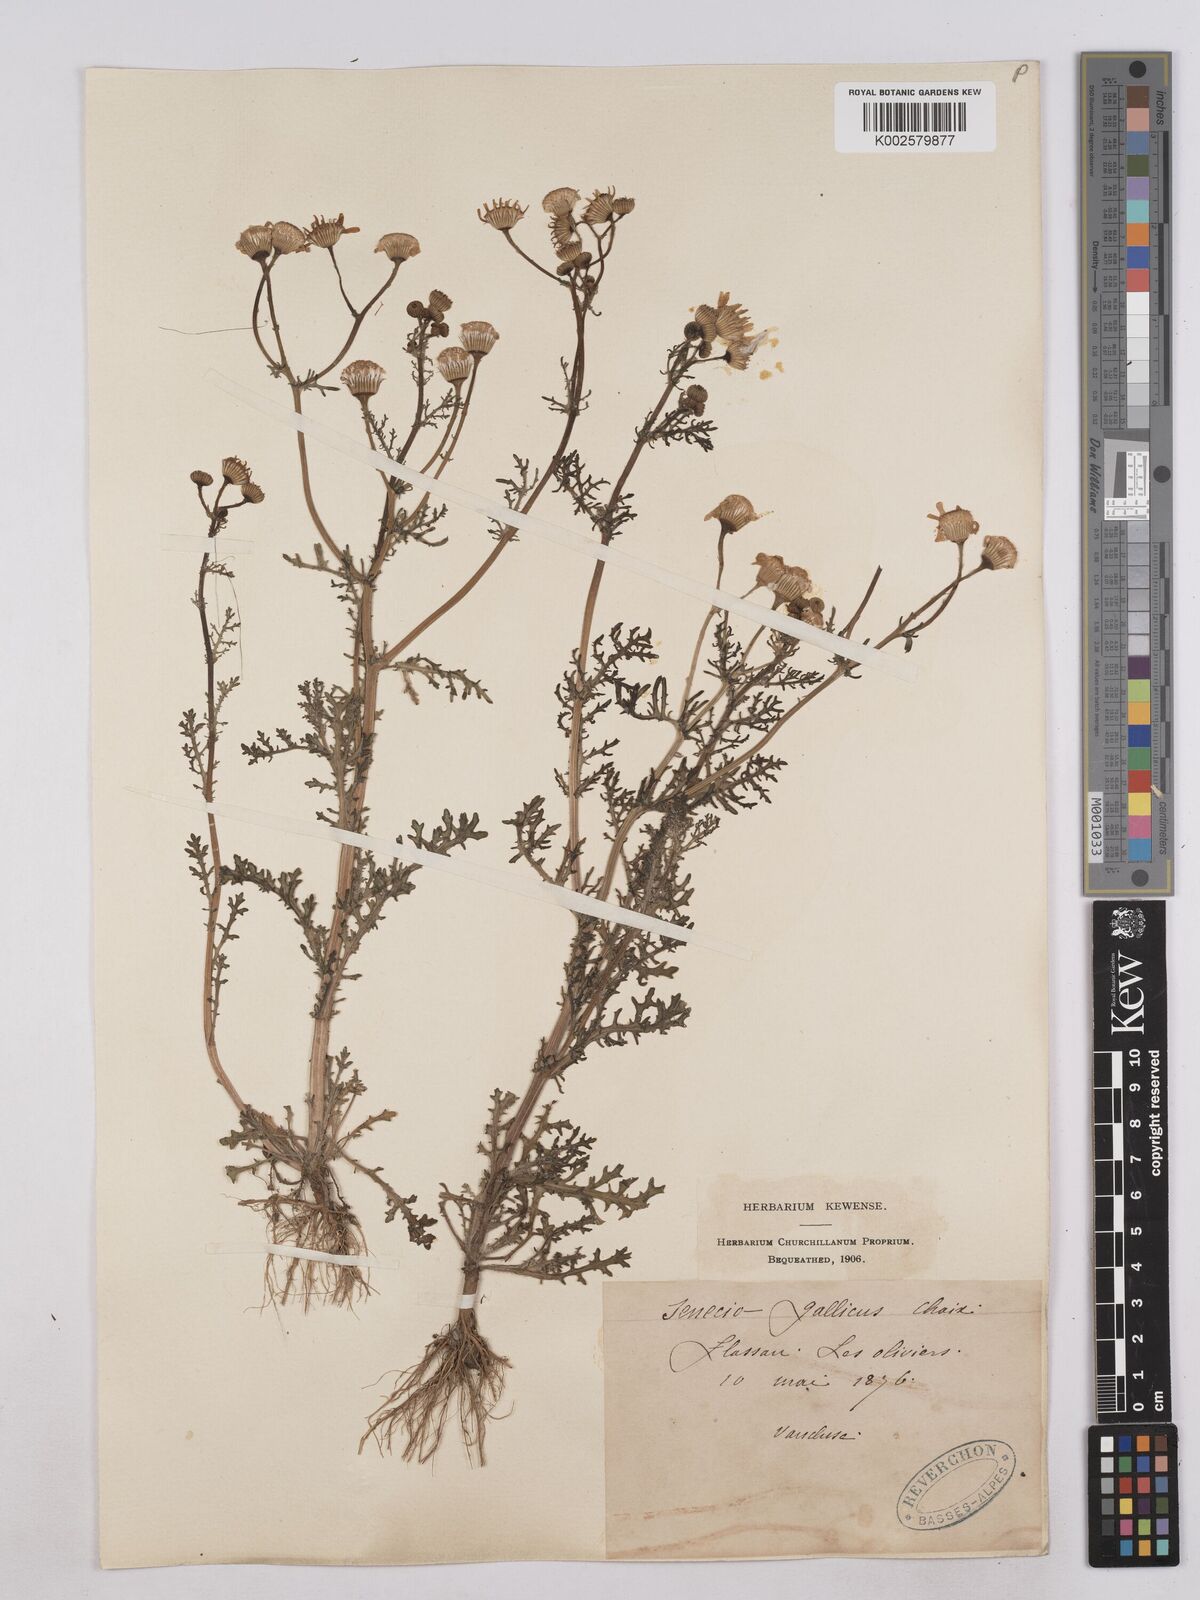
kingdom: Plantae
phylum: Tracheophyta
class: Magnoliopsida
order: Asterales
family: Asteraceae
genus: Senecio
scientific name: Senecio gallicus
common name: French groundsel
